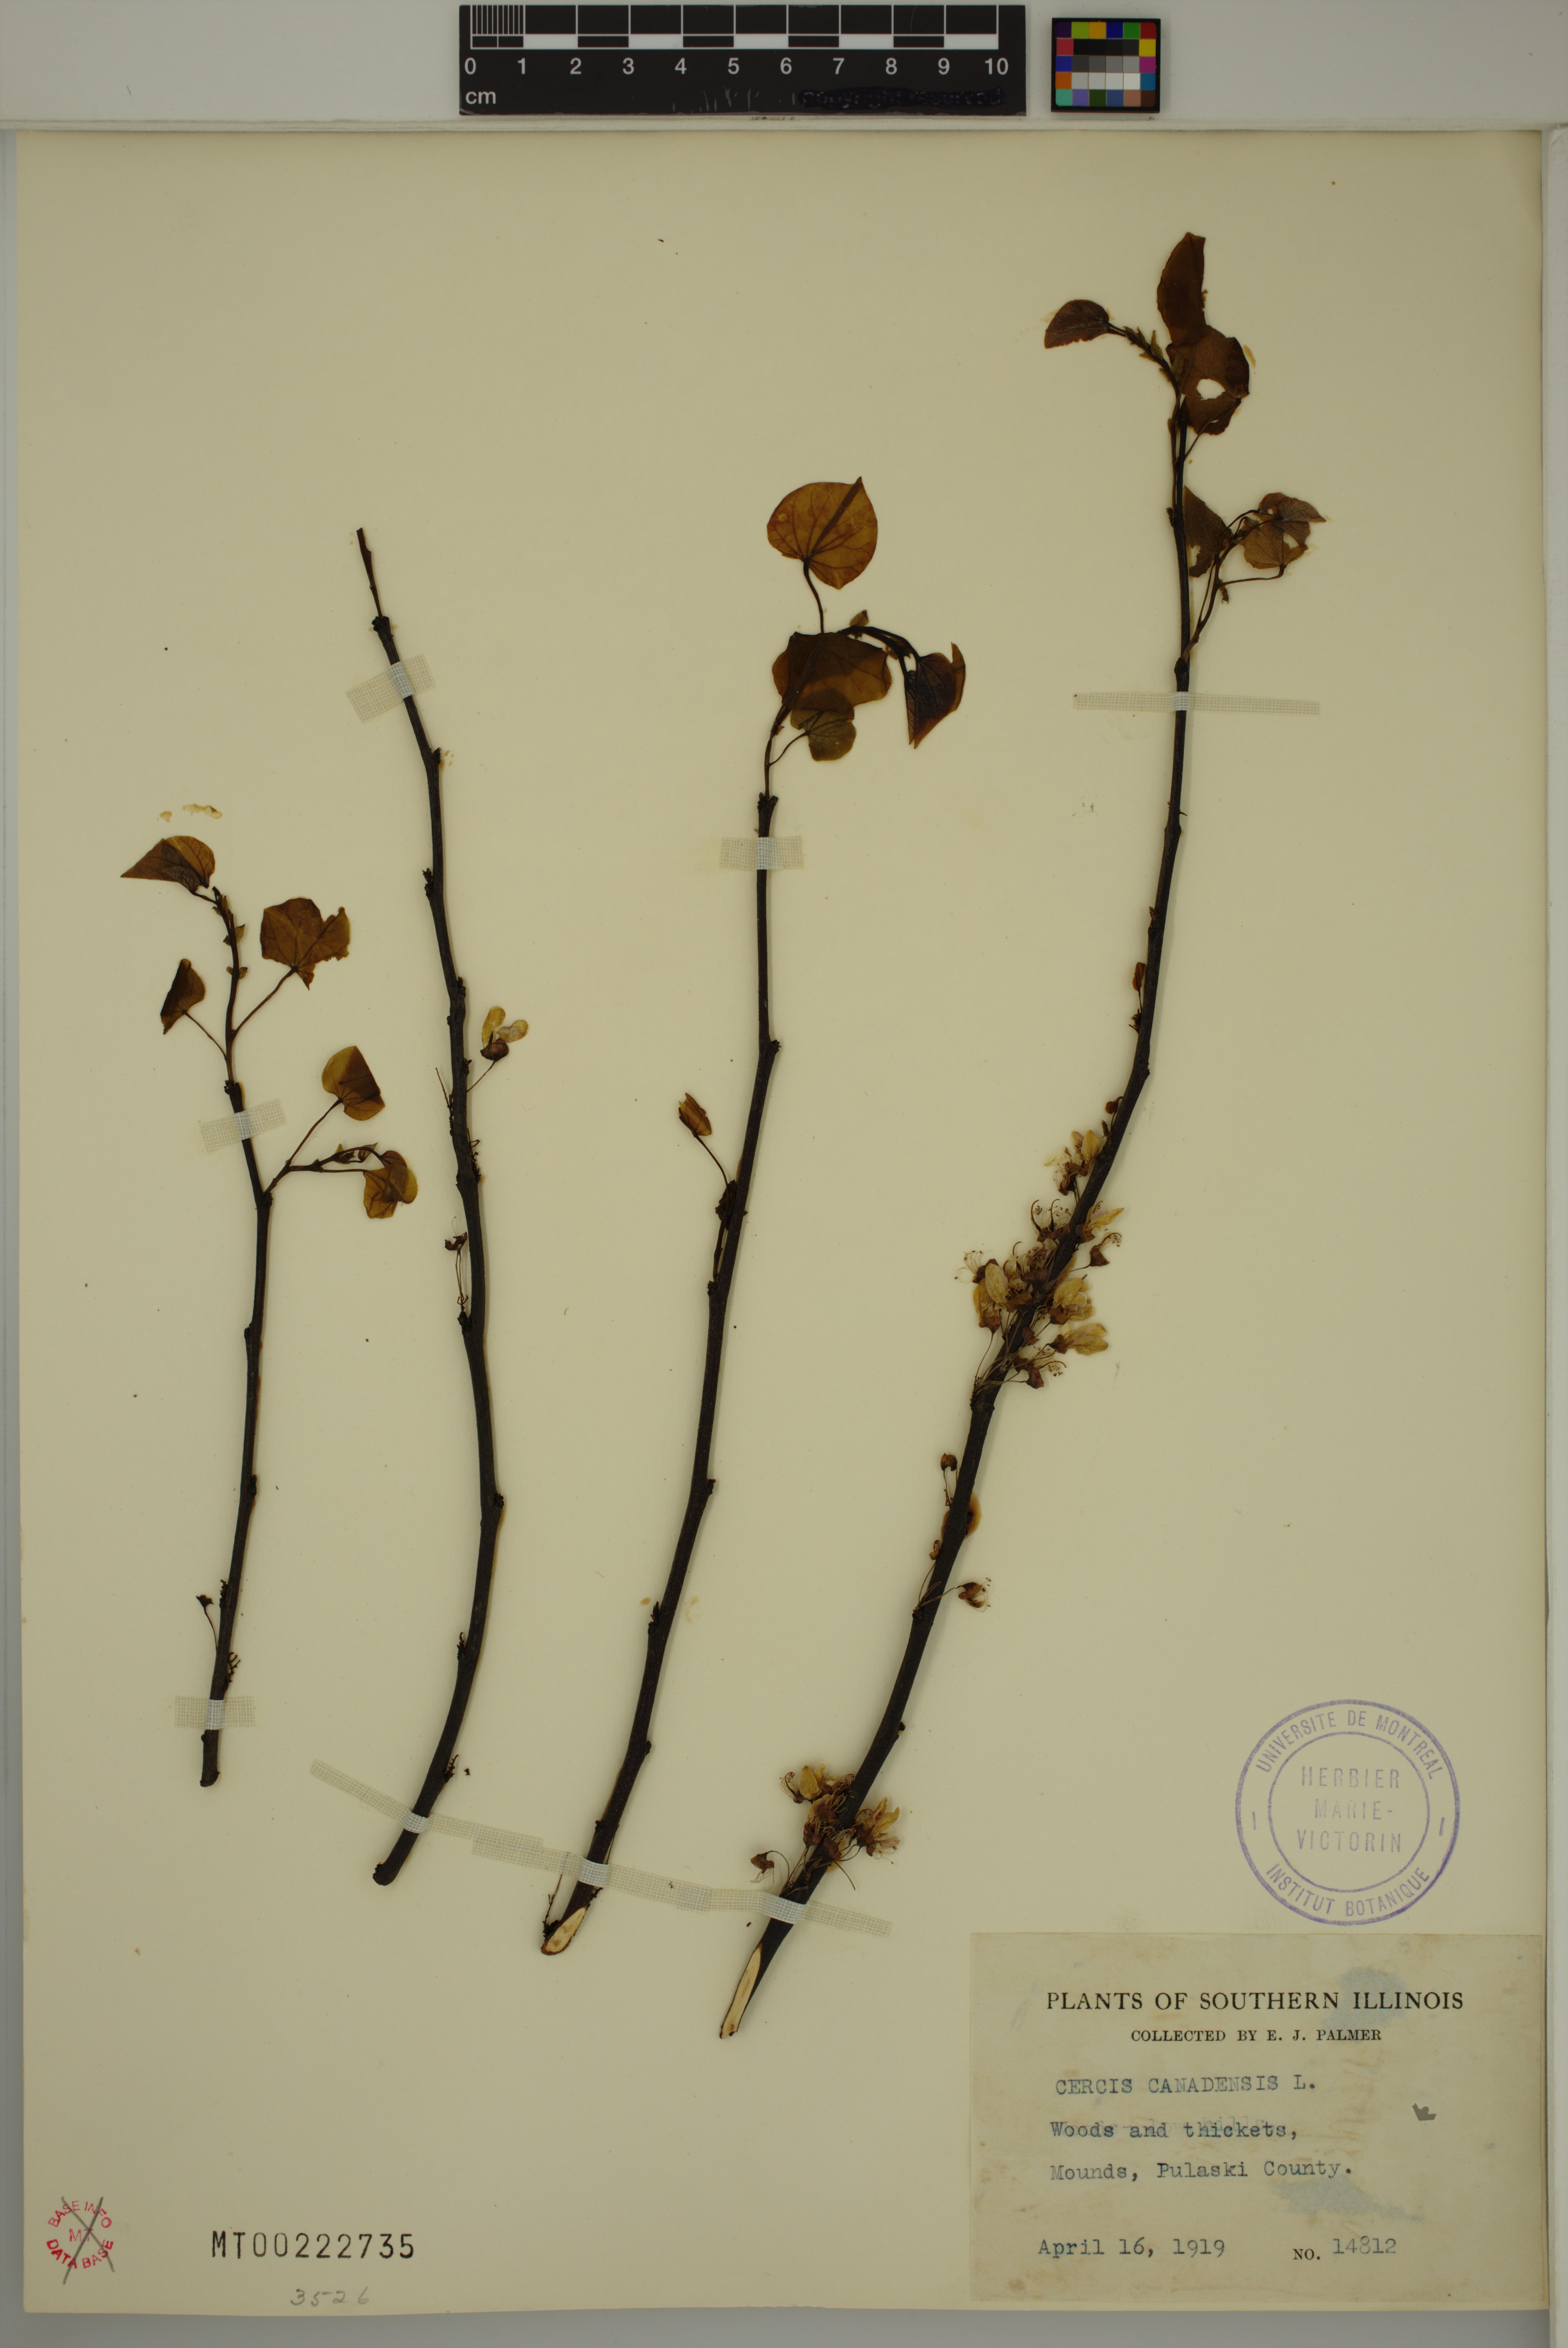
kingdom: Plantae
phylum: Tracheophyta
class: Magnoliopsida
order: Fabales
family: Fabaceae
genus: Cercis
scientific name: Cercis canadensis
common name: Eastern redbud
